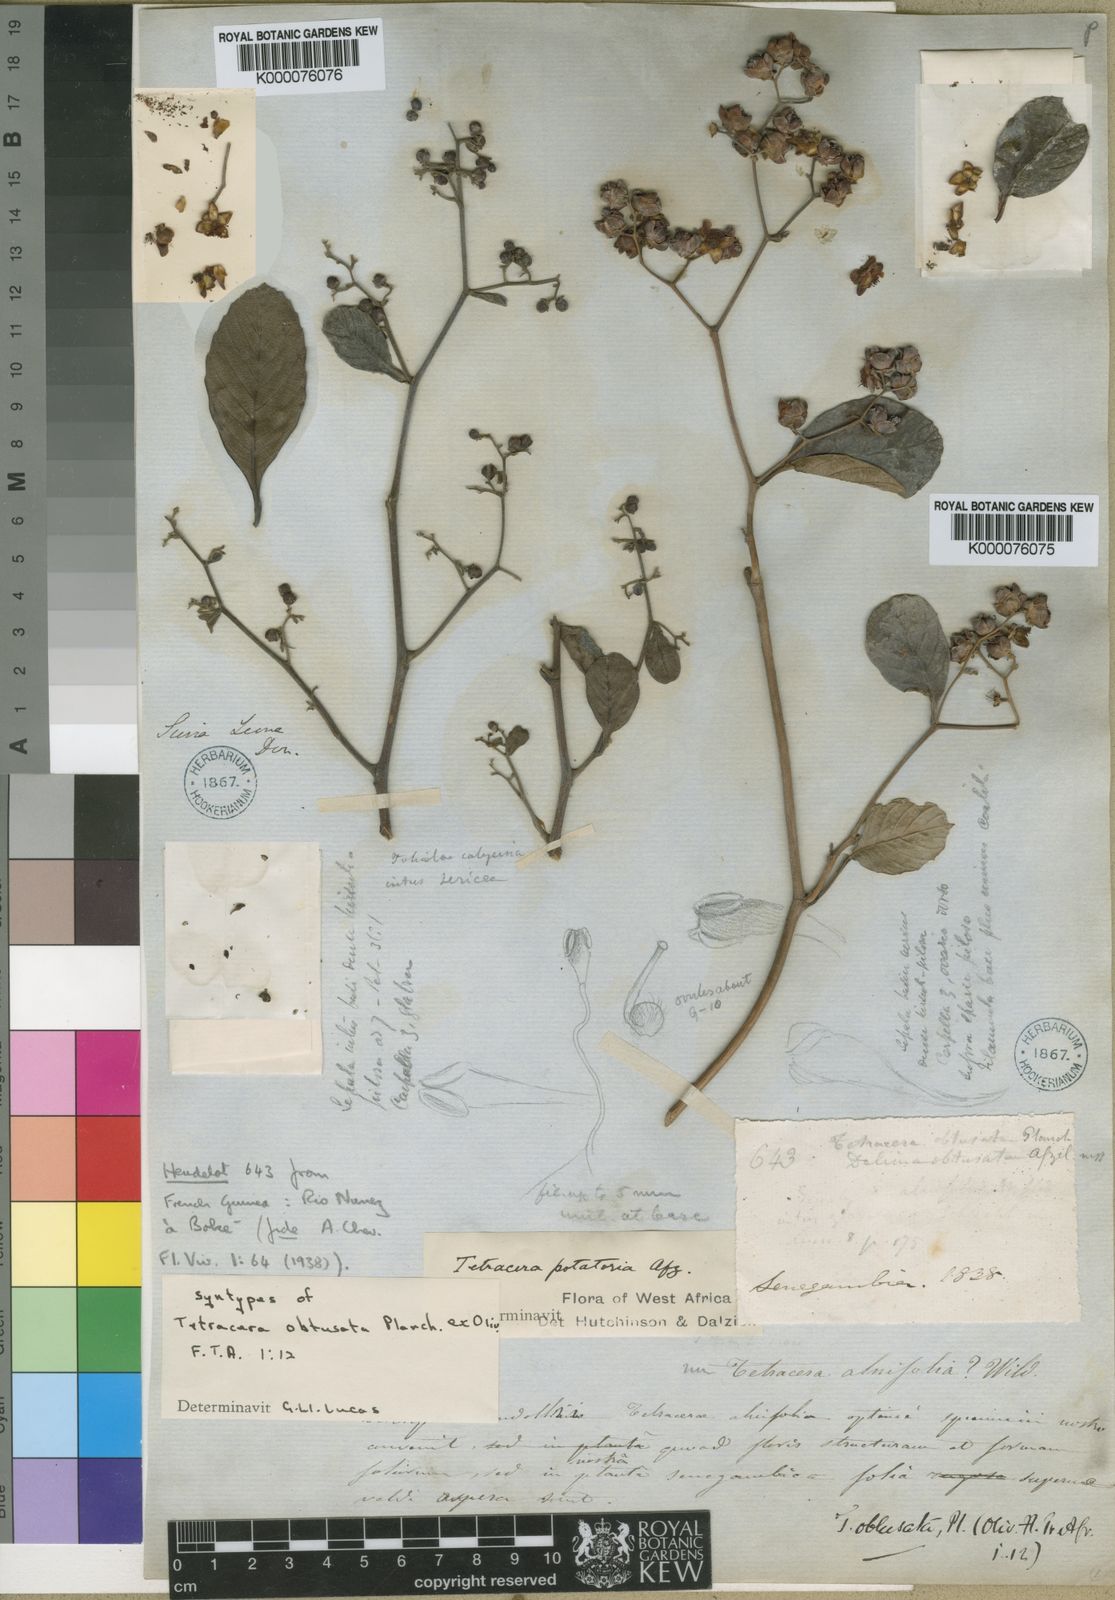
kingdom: Plantae
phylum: Tracheophyta
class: Magnoliopsida
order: Dilleniales
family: Dilleniaceae
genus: Tetracera
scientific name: Tetracera potatoria
